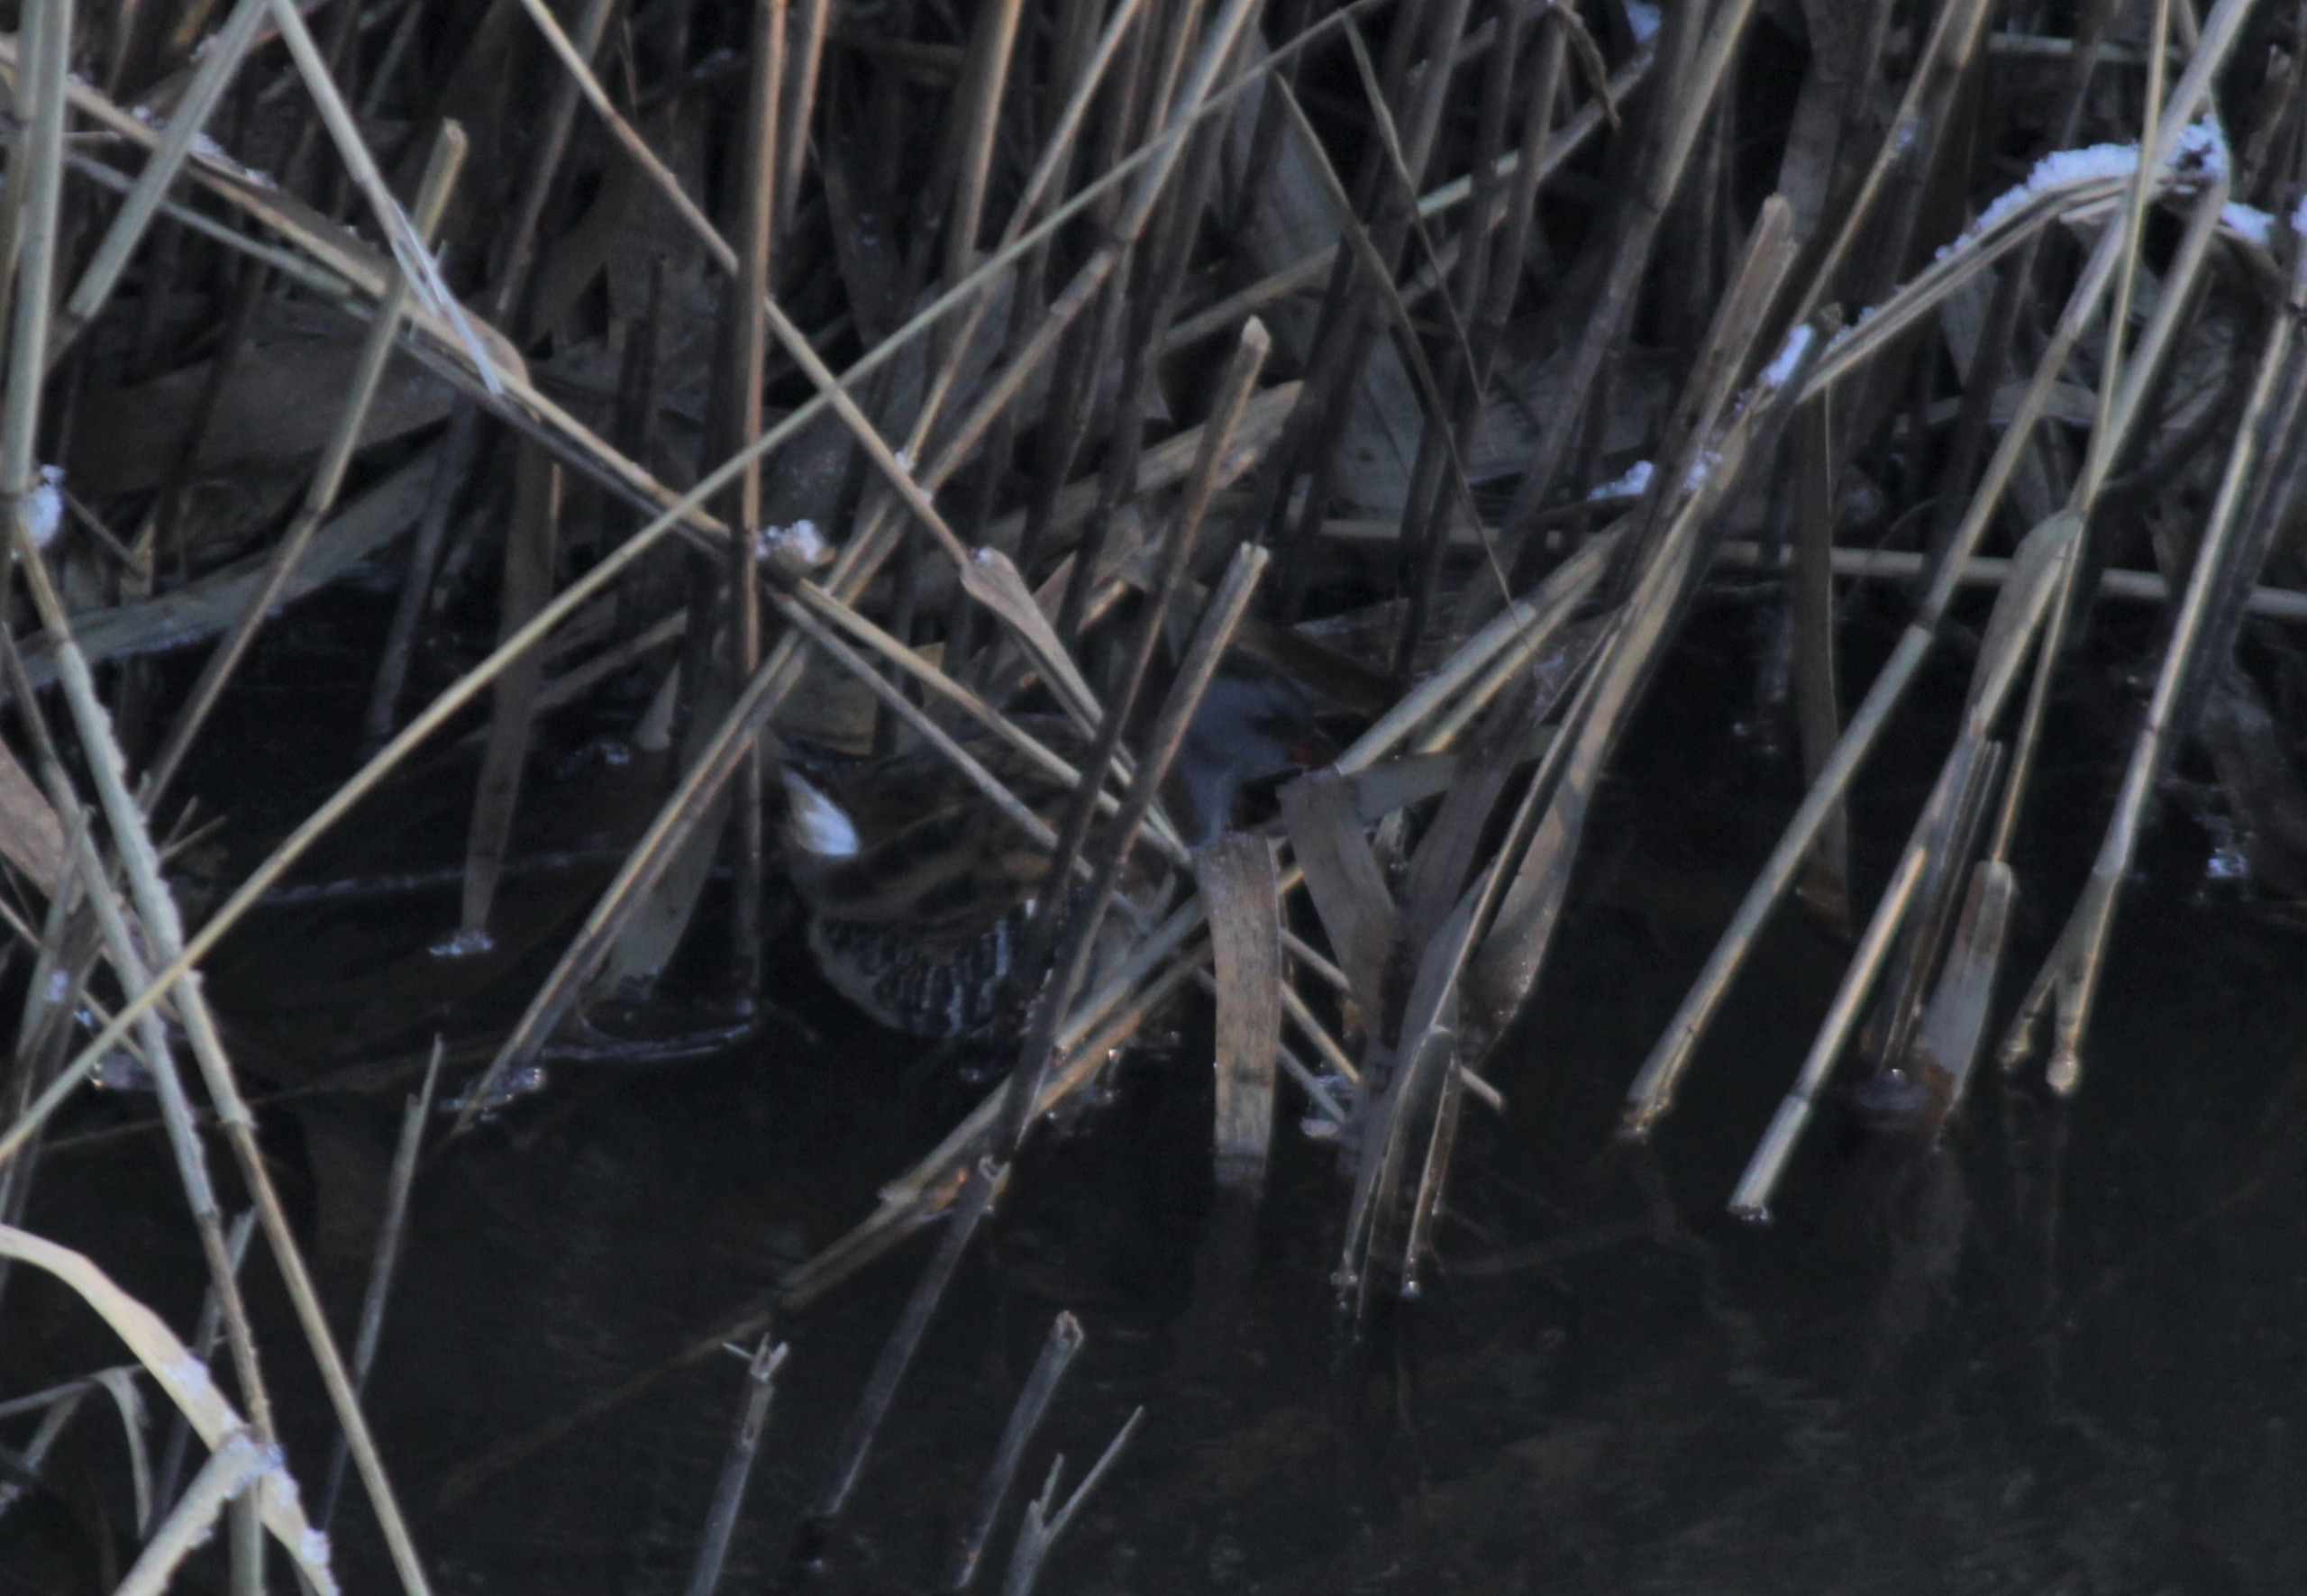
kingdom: Animalia
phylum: Chordata
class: Aves
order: Gruiformes
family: Rallidae
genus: Rallus
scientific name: Rallus aquaticus
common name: Vandrikse
